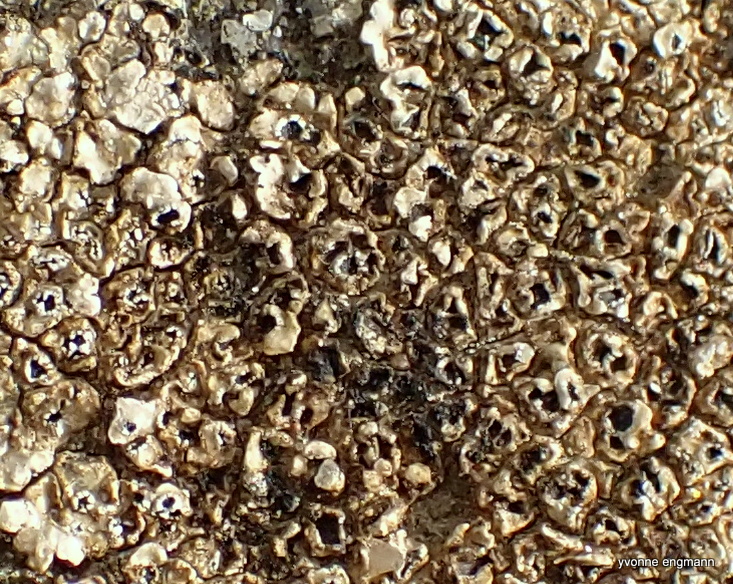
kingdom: Fungi
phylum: Ascomycota
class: Lecanoromycetes
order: Pertusariales
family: Megasporaceae
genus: Circinaria
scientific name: Circinaria contorta
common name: indviklet hulskivelav
